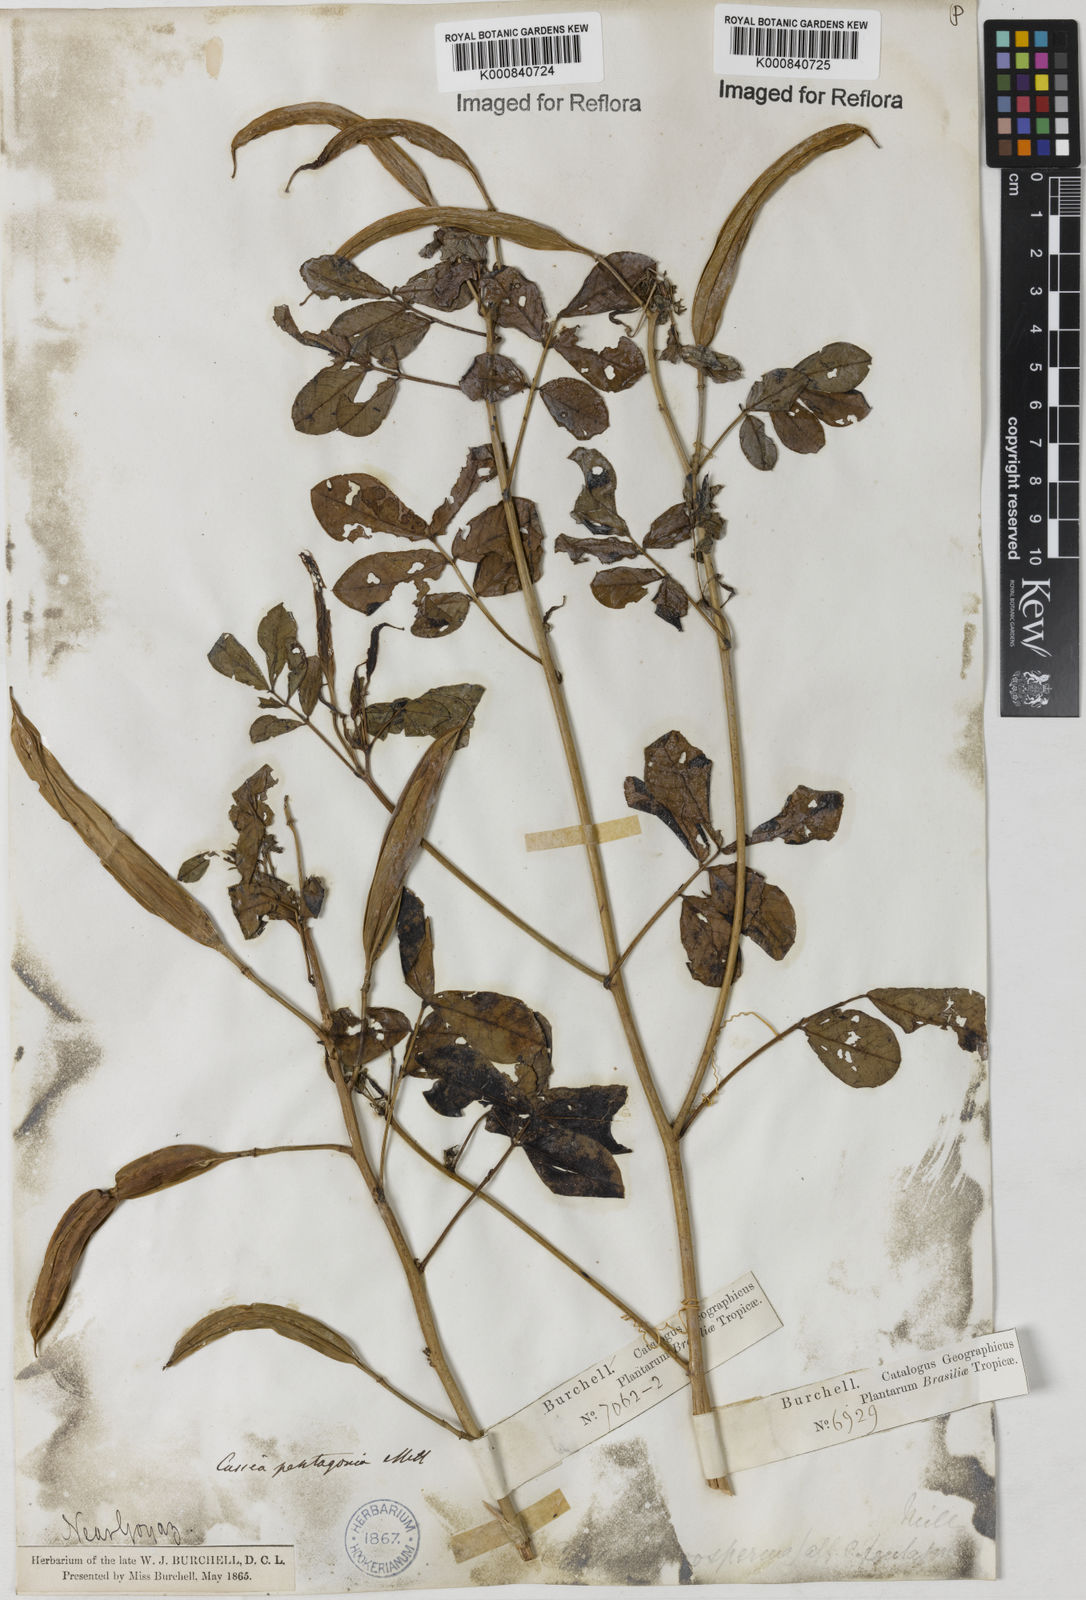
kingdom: Plantae
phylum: Tracheophyta
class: Magnoliopsida
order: Fabales
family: Fabaceae
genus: Senna
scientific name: Senna pentagonia
